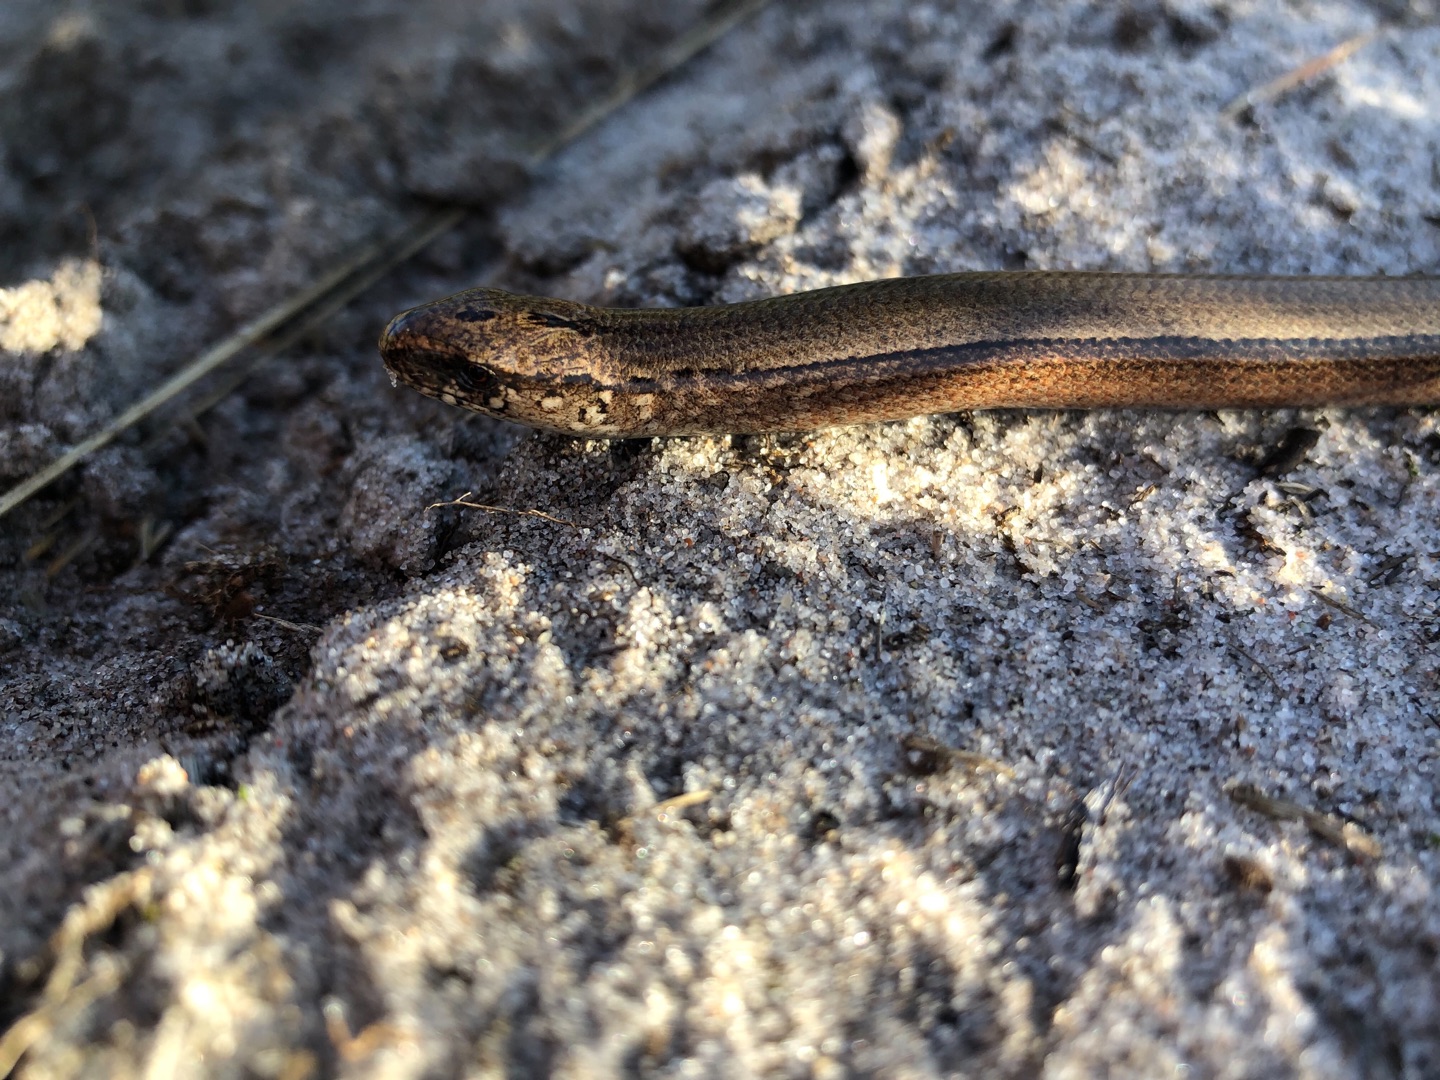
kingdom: Animalia
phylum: Chordata
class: Squamata
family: Anguidae
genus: Anguis
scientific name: Anguis fragilis
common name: Stålorm
